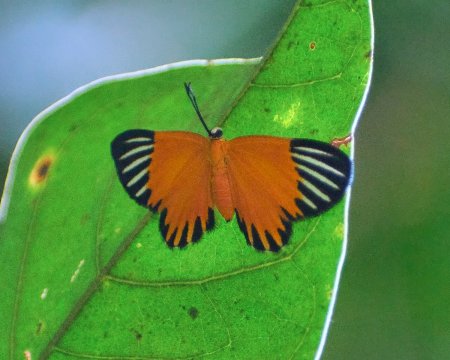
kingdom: Animalia
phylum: Arthropoda
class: Insecta
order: Lepidoptera
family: Lycaenidae
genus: Mesene
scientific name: Mesene margaretta
